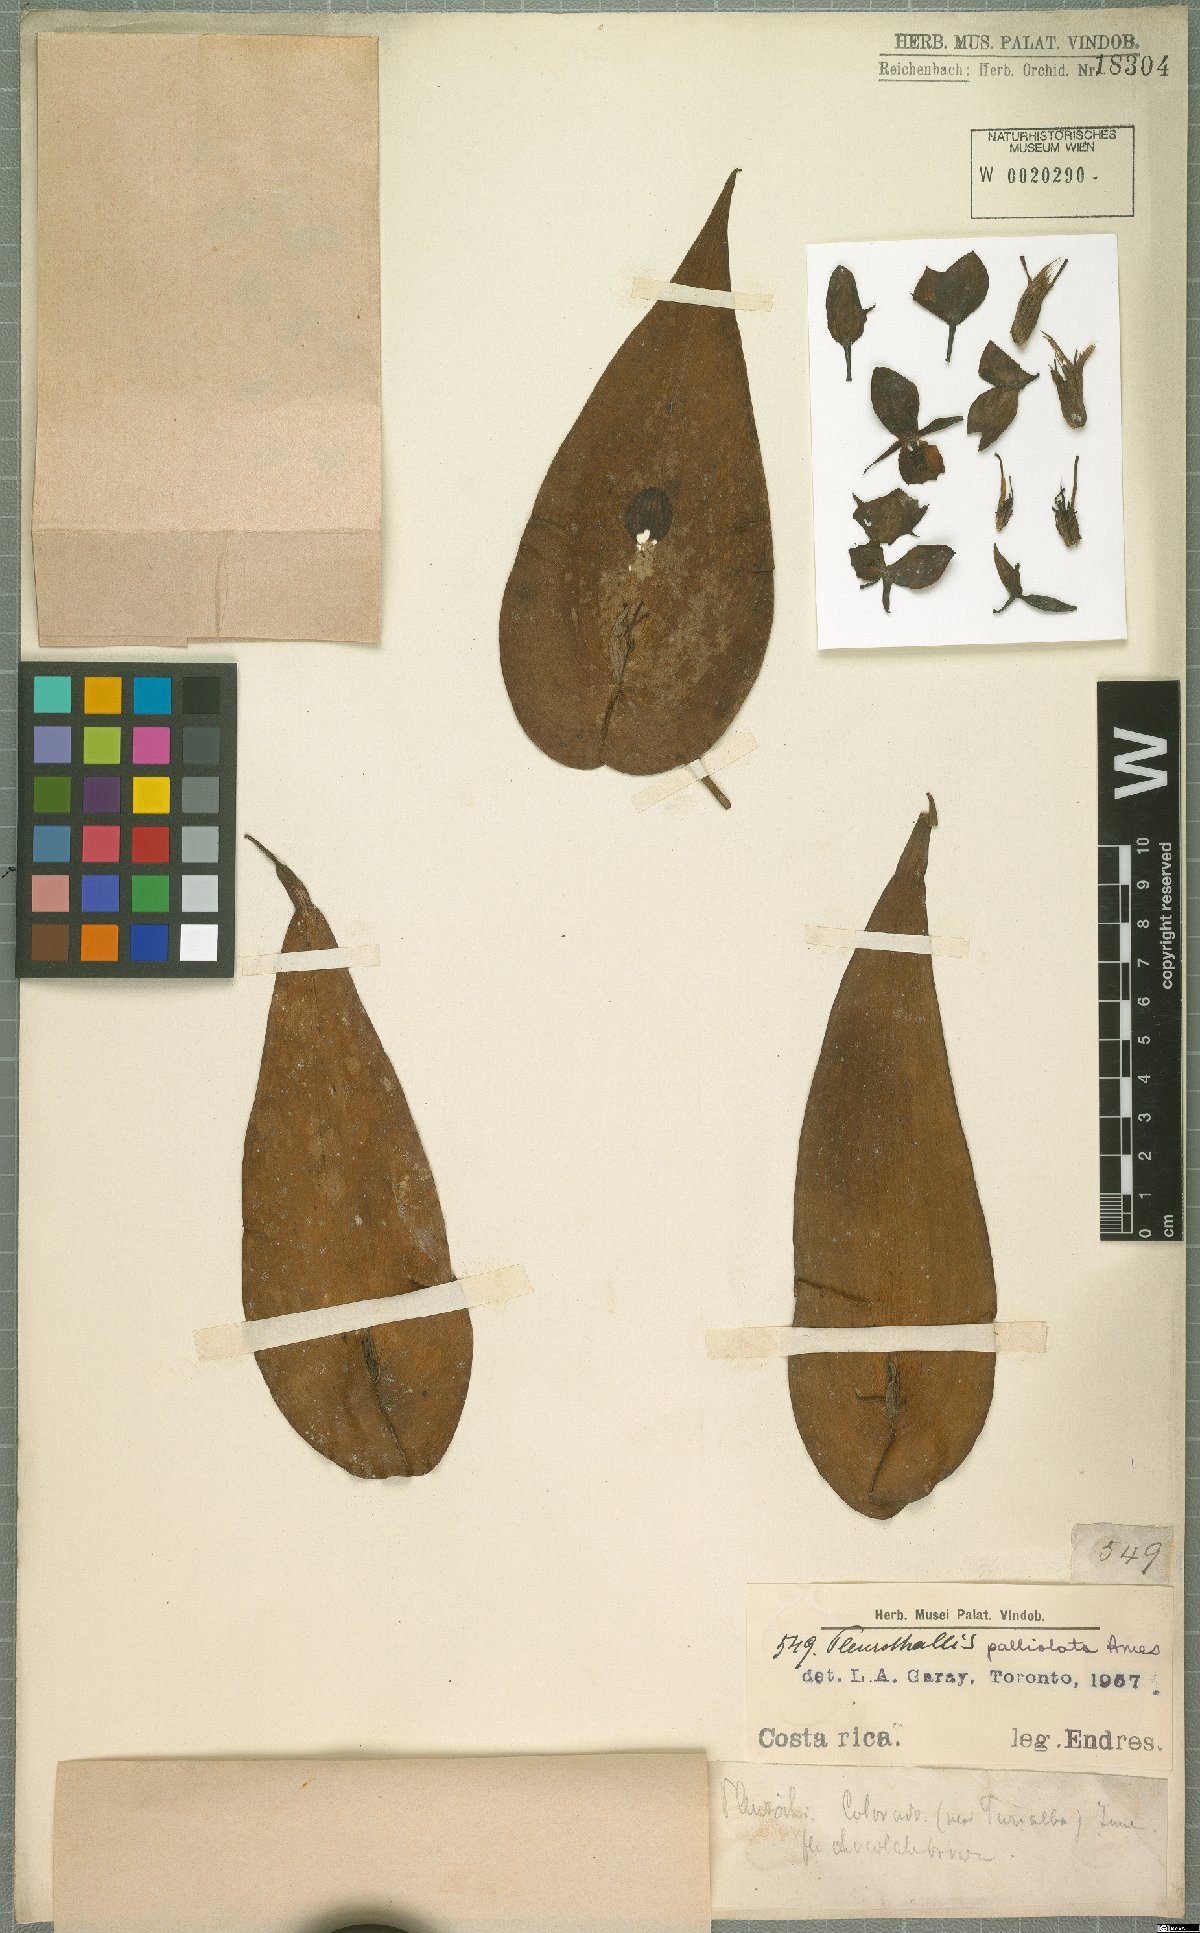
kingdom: Plantae
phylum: Tracheophyta
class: Liliopsida
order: Asparagales
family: Orchidaceae
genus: Pleurothallis
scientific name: Pleurothallis palliolata
